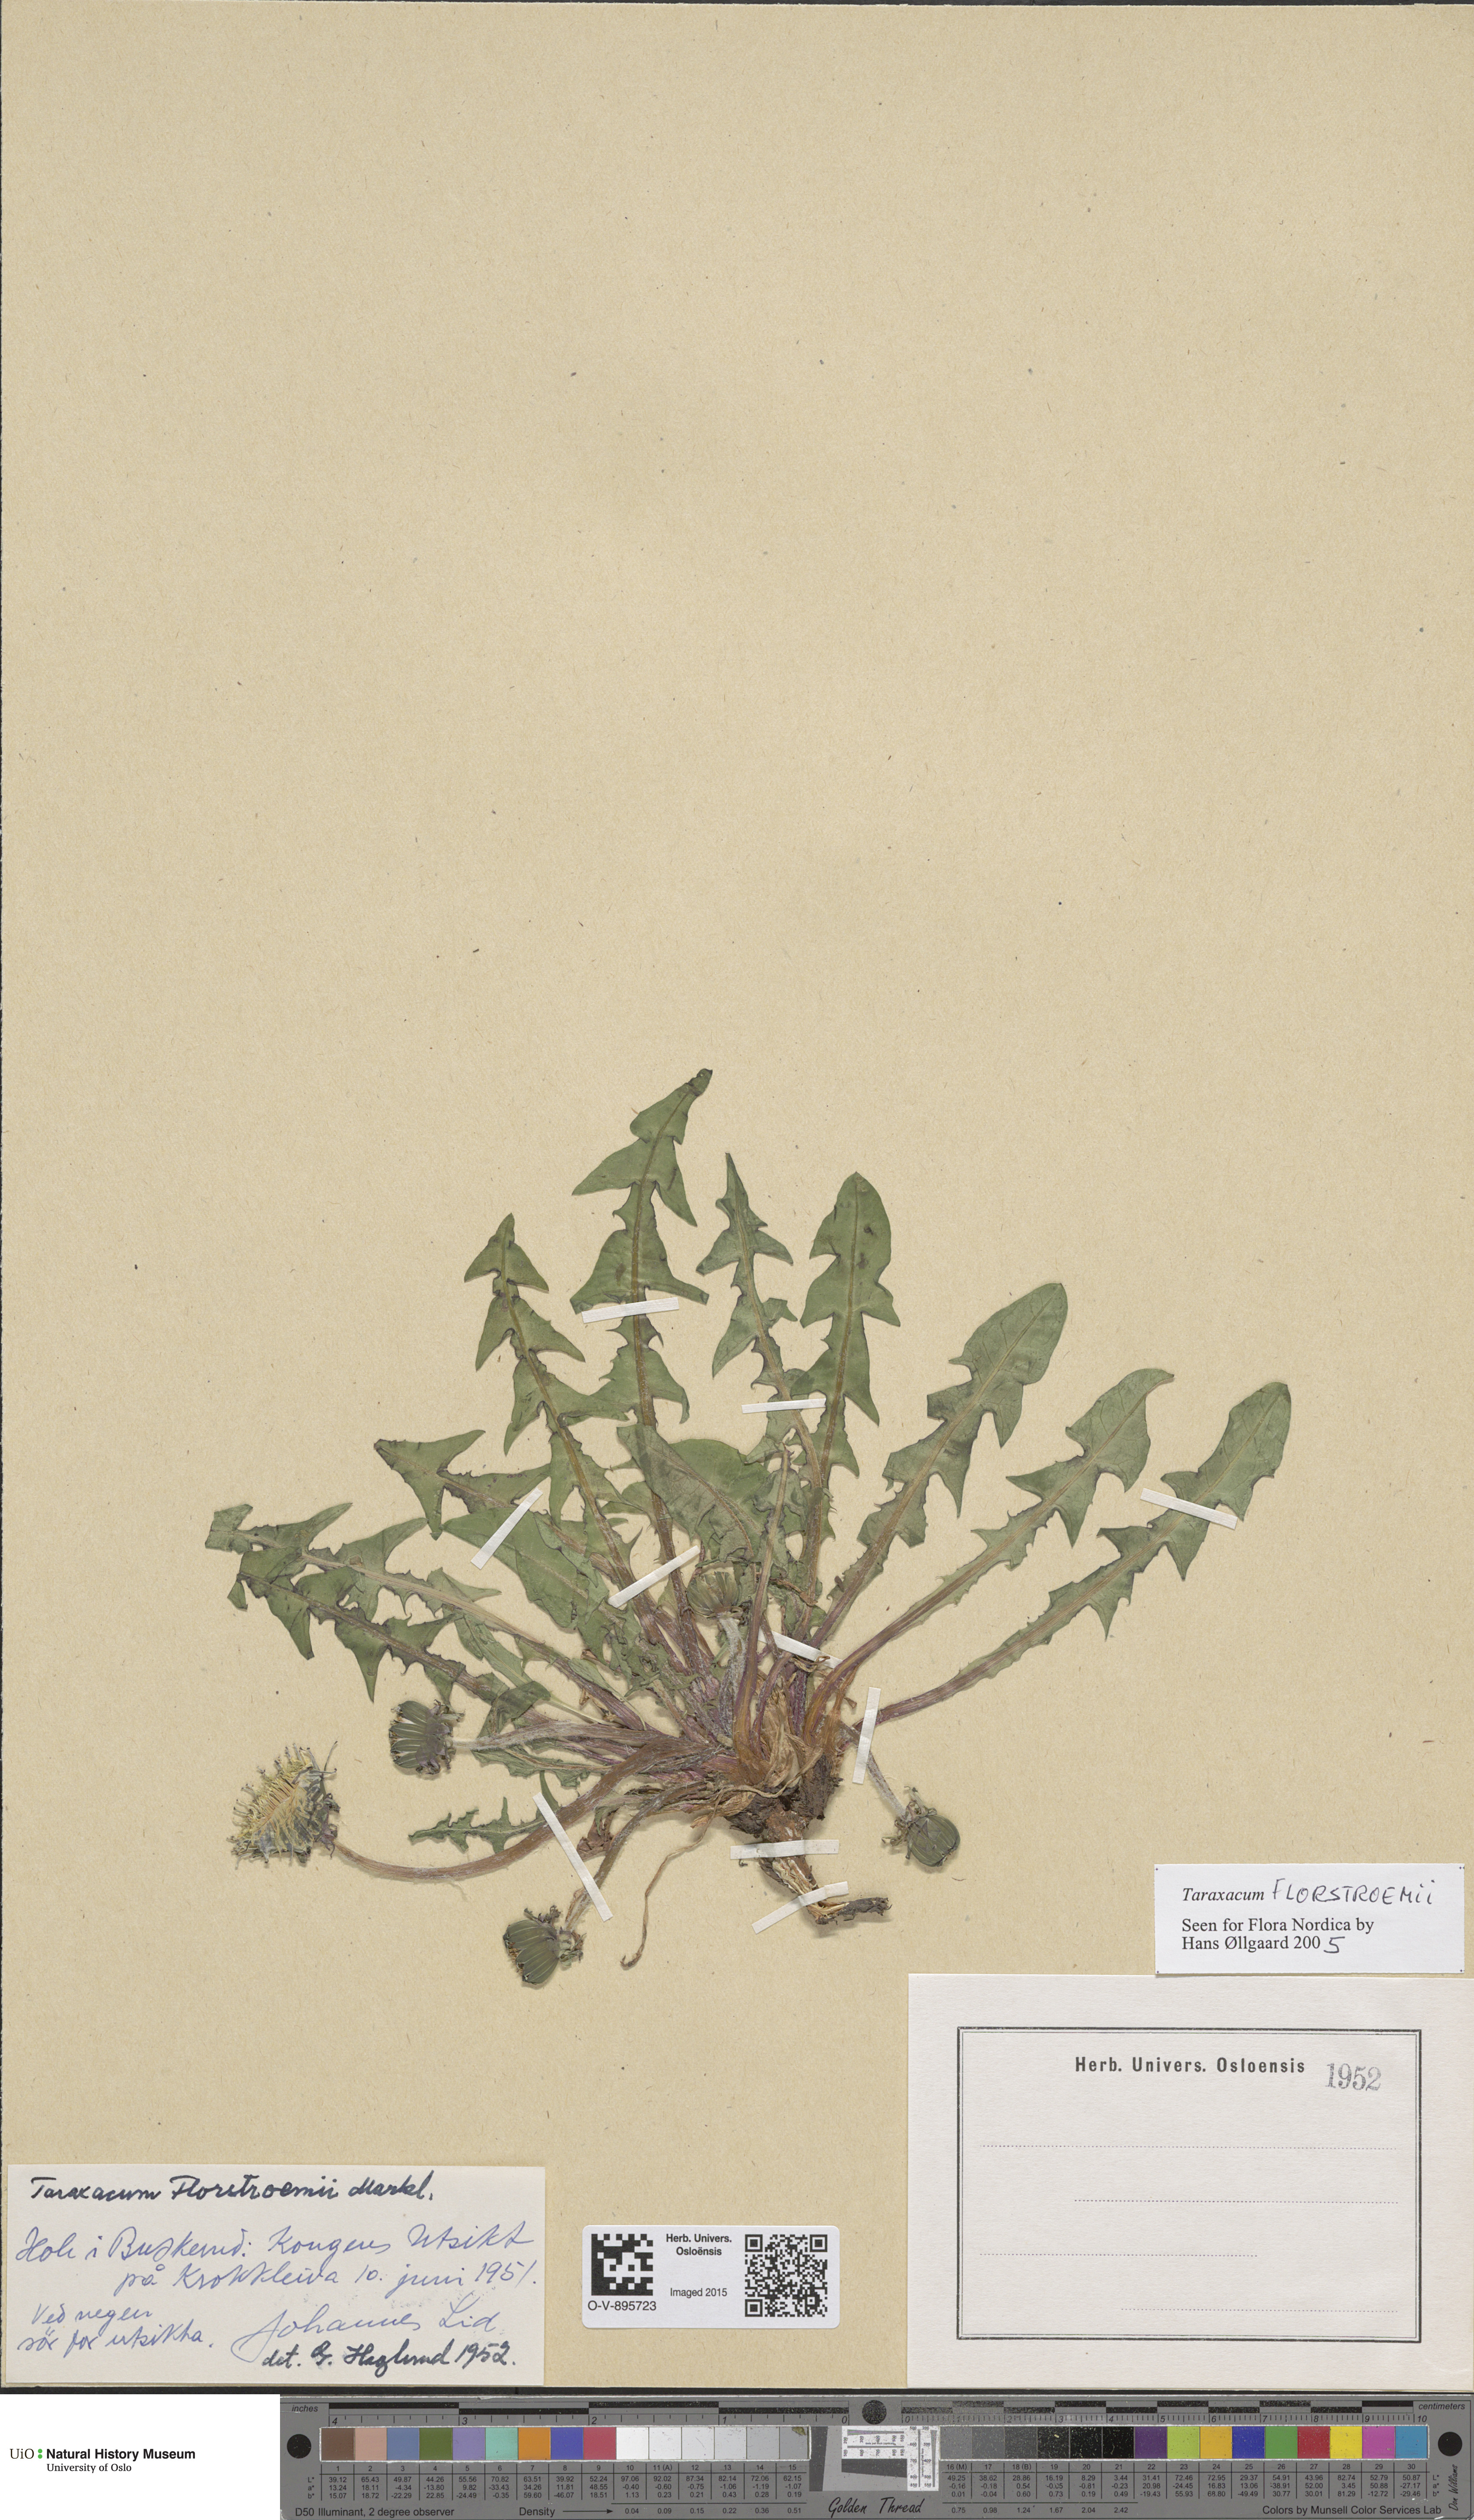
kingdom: Plantae
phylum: Tracheophyta
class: Magnoliopsida
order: Asterales
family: Asteraceae
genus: Taraxacum
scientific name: Taraxacum florstroemii
